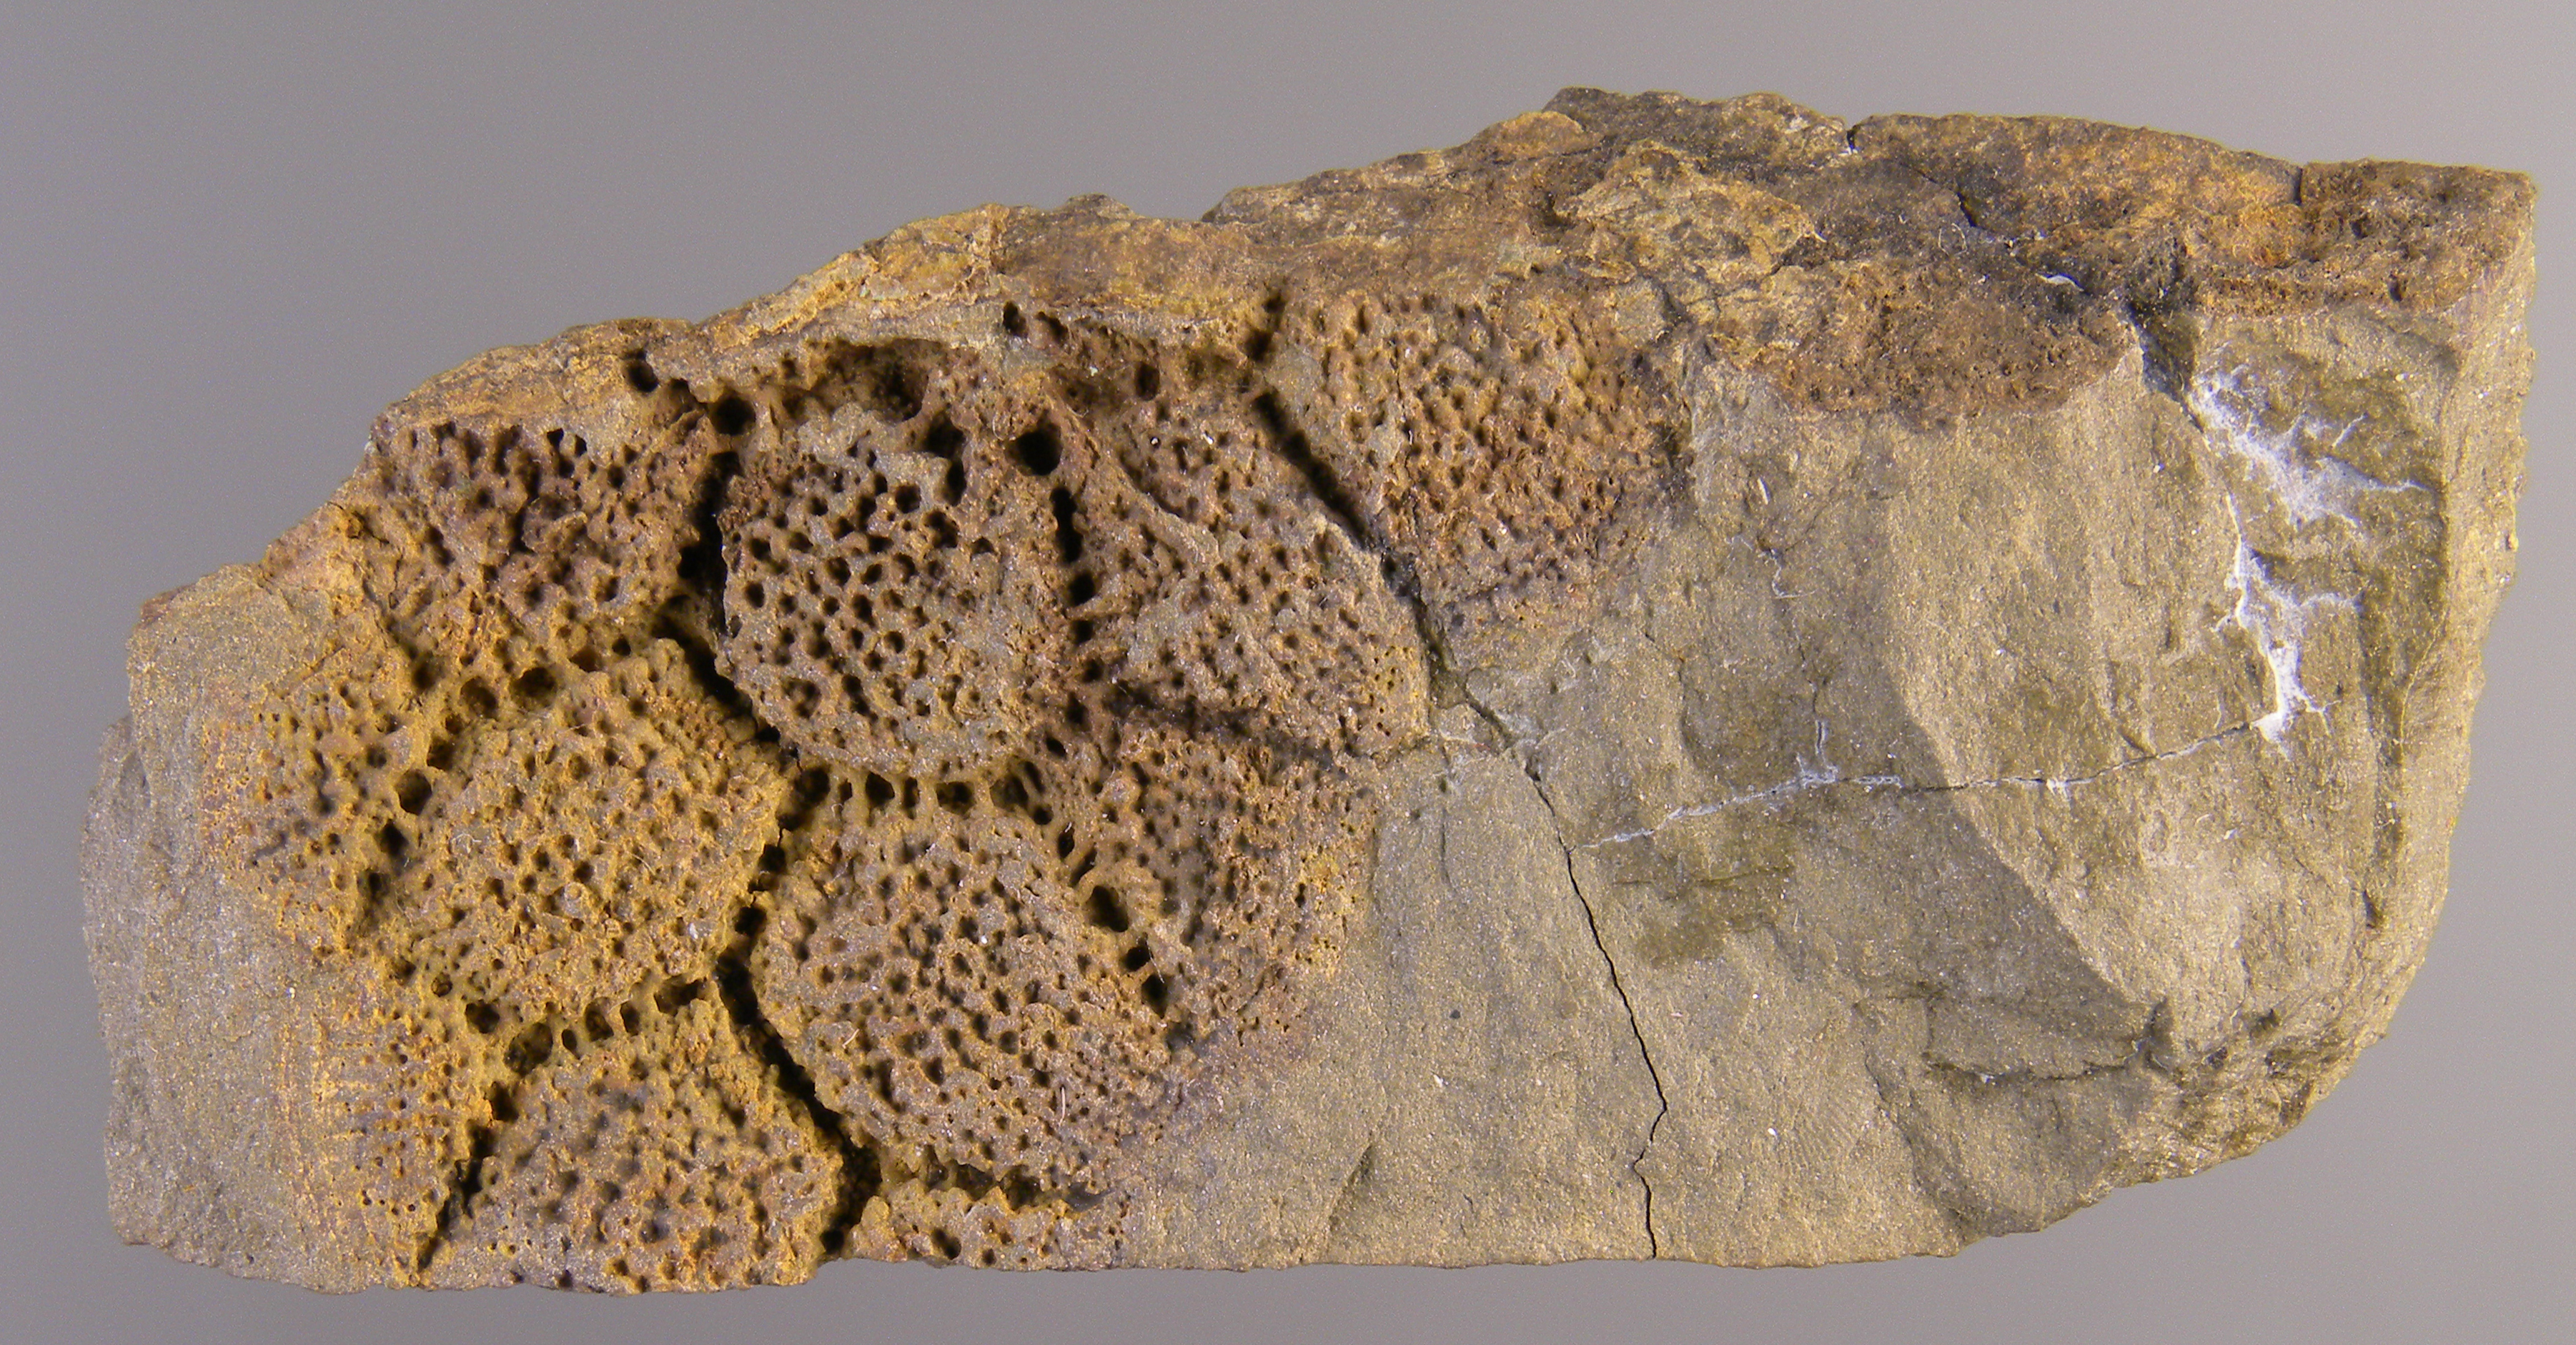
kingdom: Animalia
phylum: Cnidaria
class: Anthozoa
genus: Cleistodictyum
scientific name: Cleistodictyum
